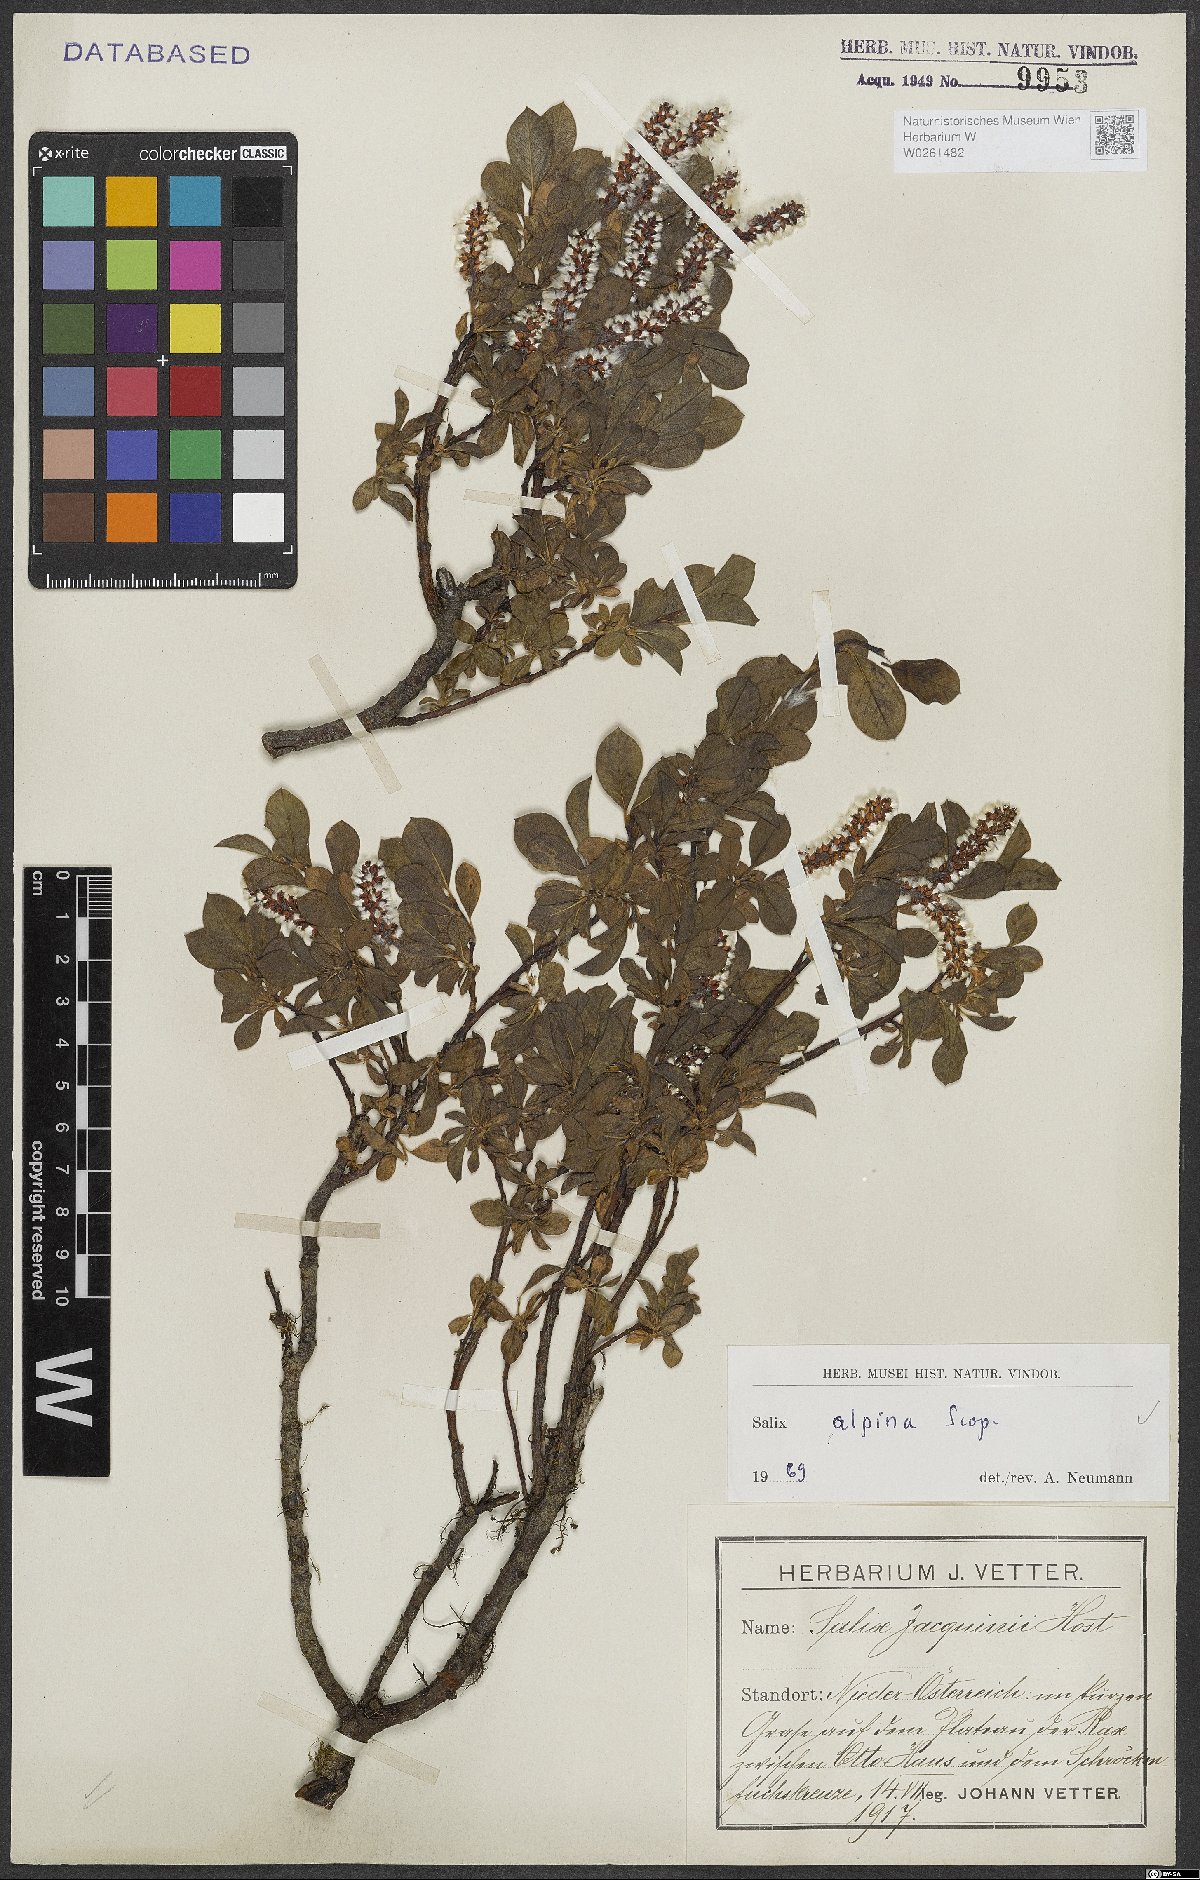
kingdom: Plantae
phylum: Tracheophyta
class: Magnoliopsida
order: Malpighiales
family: Salicaceae
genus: Salix
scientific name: Salix alpina
